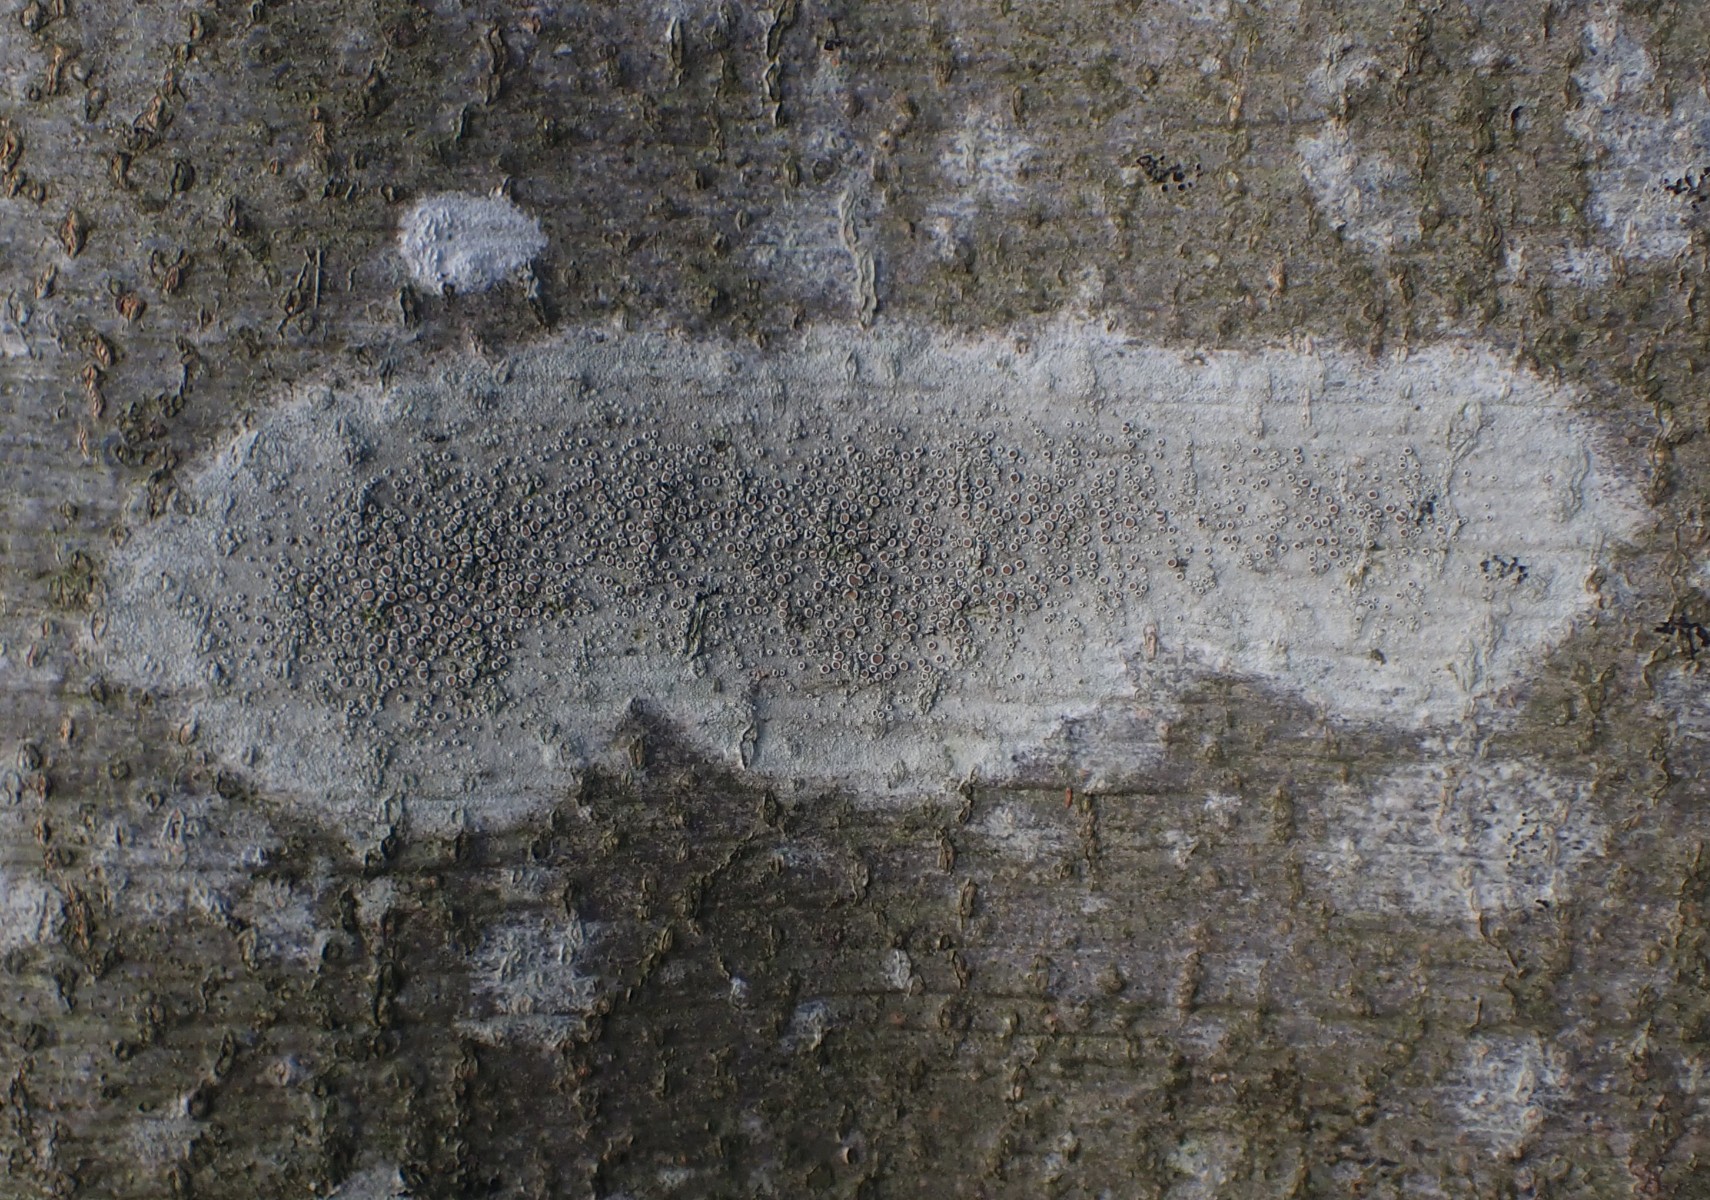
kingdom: Fungi
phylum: Ascomycota
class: Lecanoromycetes
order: Lecanorales
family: Lecanoraceae
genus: Lecanora
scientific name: Lecanora chlarotera
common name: brun kantskivelav
